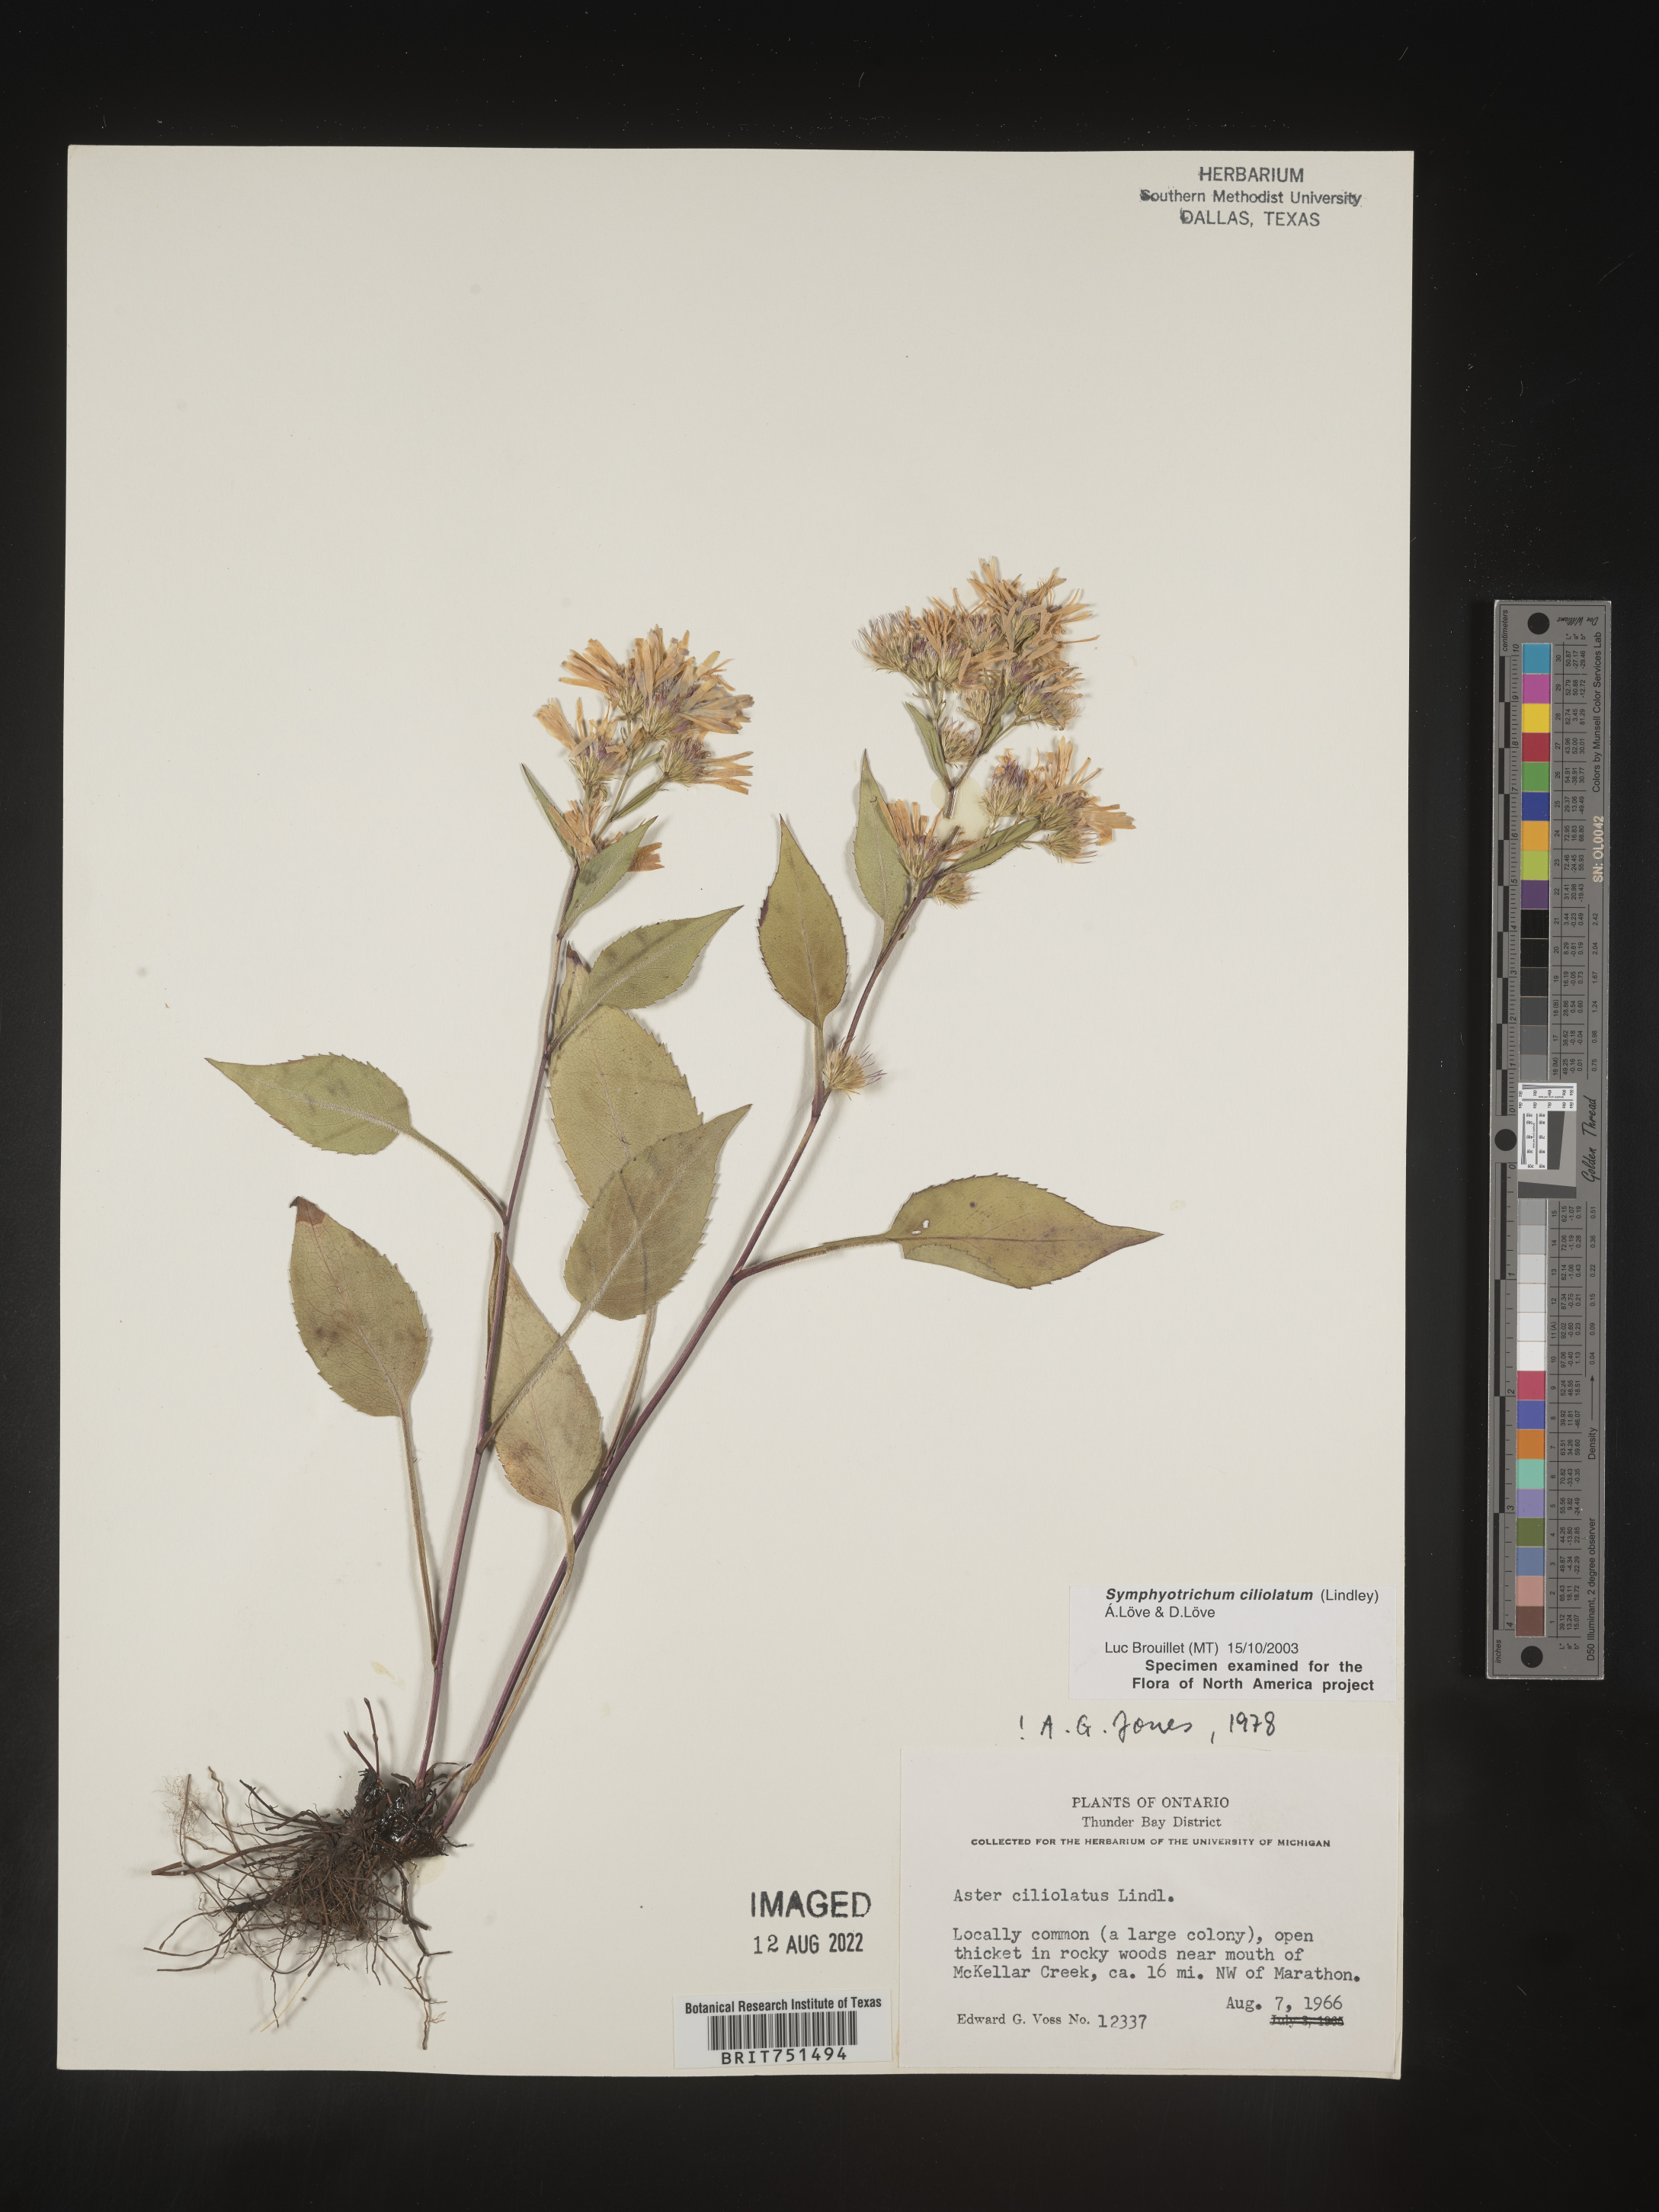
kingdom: Plantae
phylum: Tracheophyta
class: Magnoliopsida
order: Asterales
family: Asteraceae
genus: Symphyotrichum
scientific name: Symphyotrichum ciliolatum
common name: Fringed blue aster
